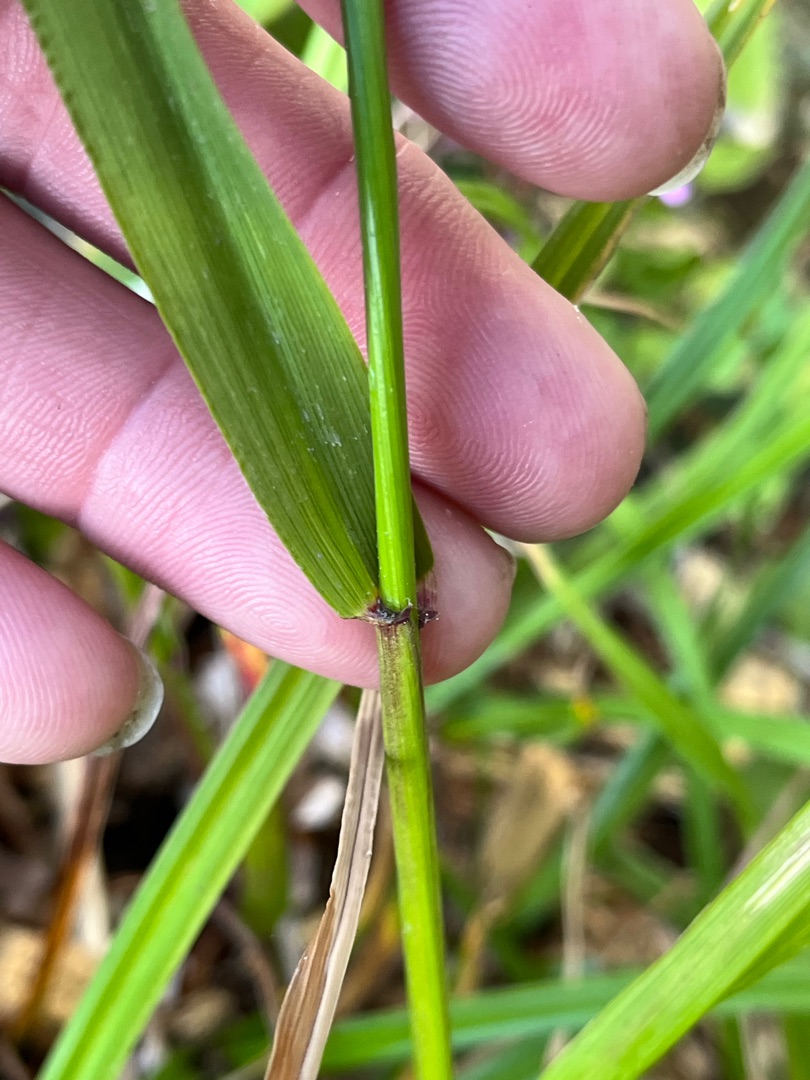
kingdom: Plantae
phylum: Tracheophyta
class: Liliopsida
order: Poales
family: Poaceae
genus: Lolium
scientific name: Lolium giganteum
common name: Kæmpe-svingel
